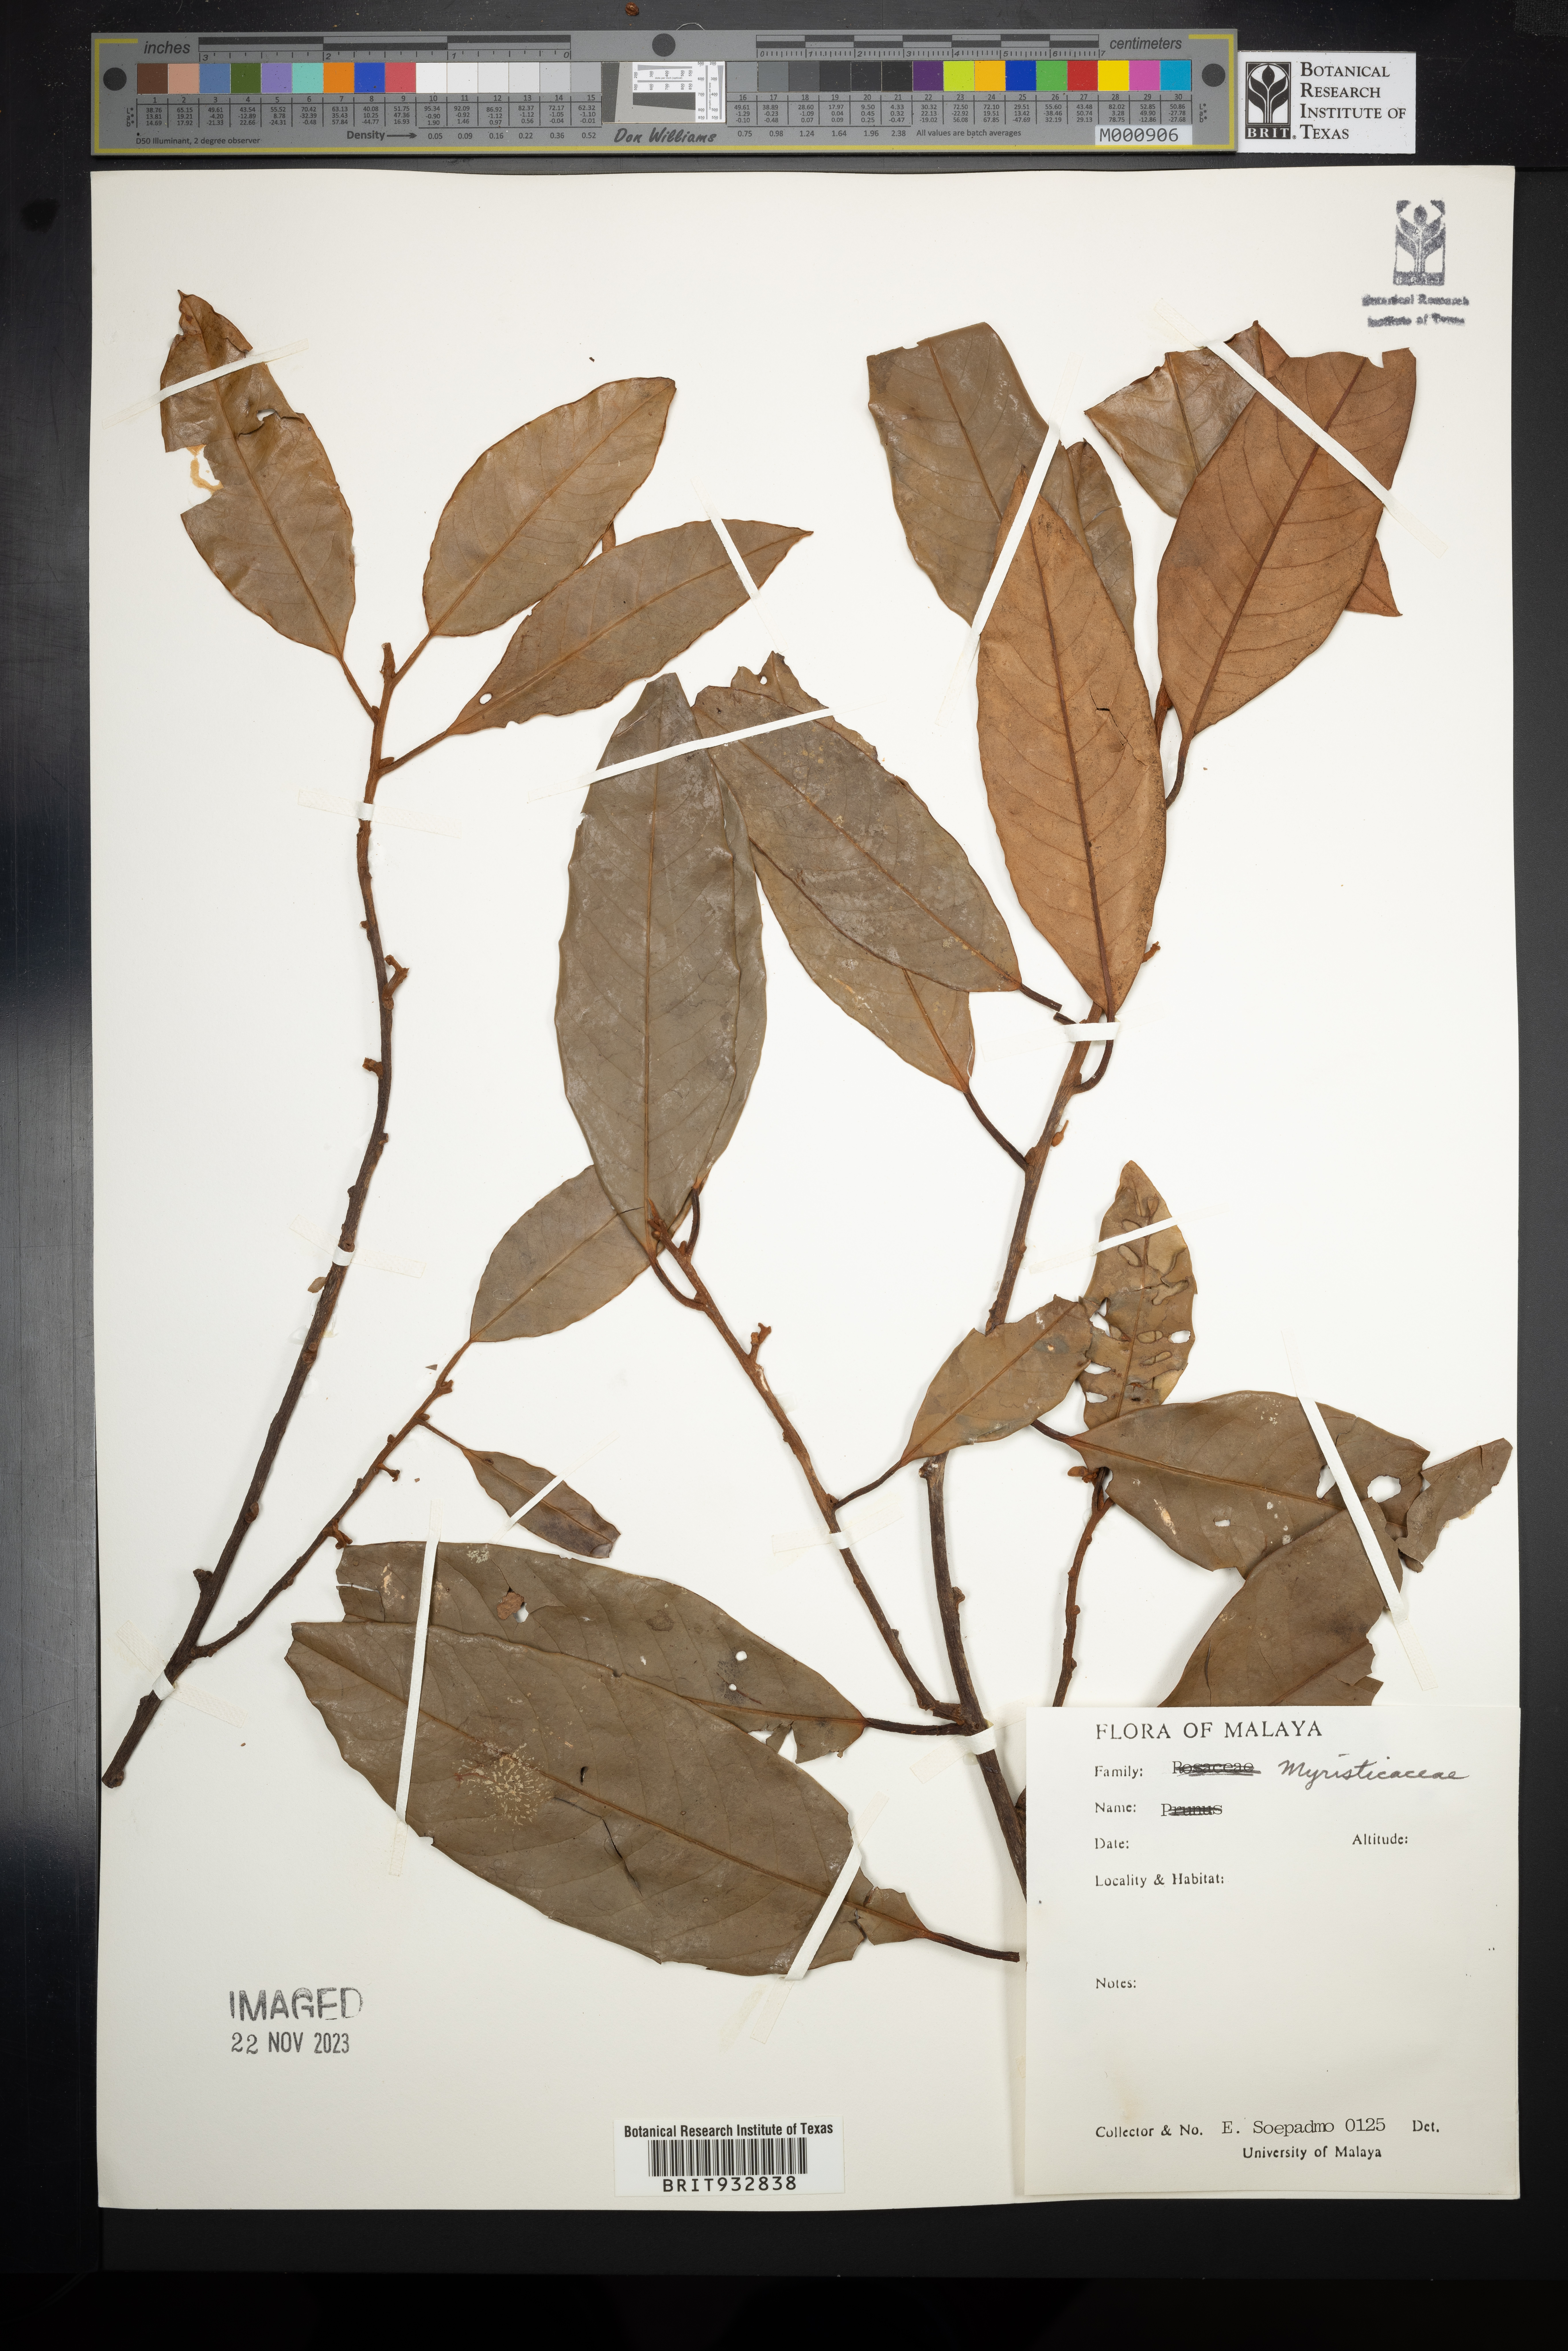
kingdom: Plantae
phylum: Tracheophyta
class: Magnoliopsida
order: Magnoliales
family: Myristicaceae
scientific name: Myristicaceae
